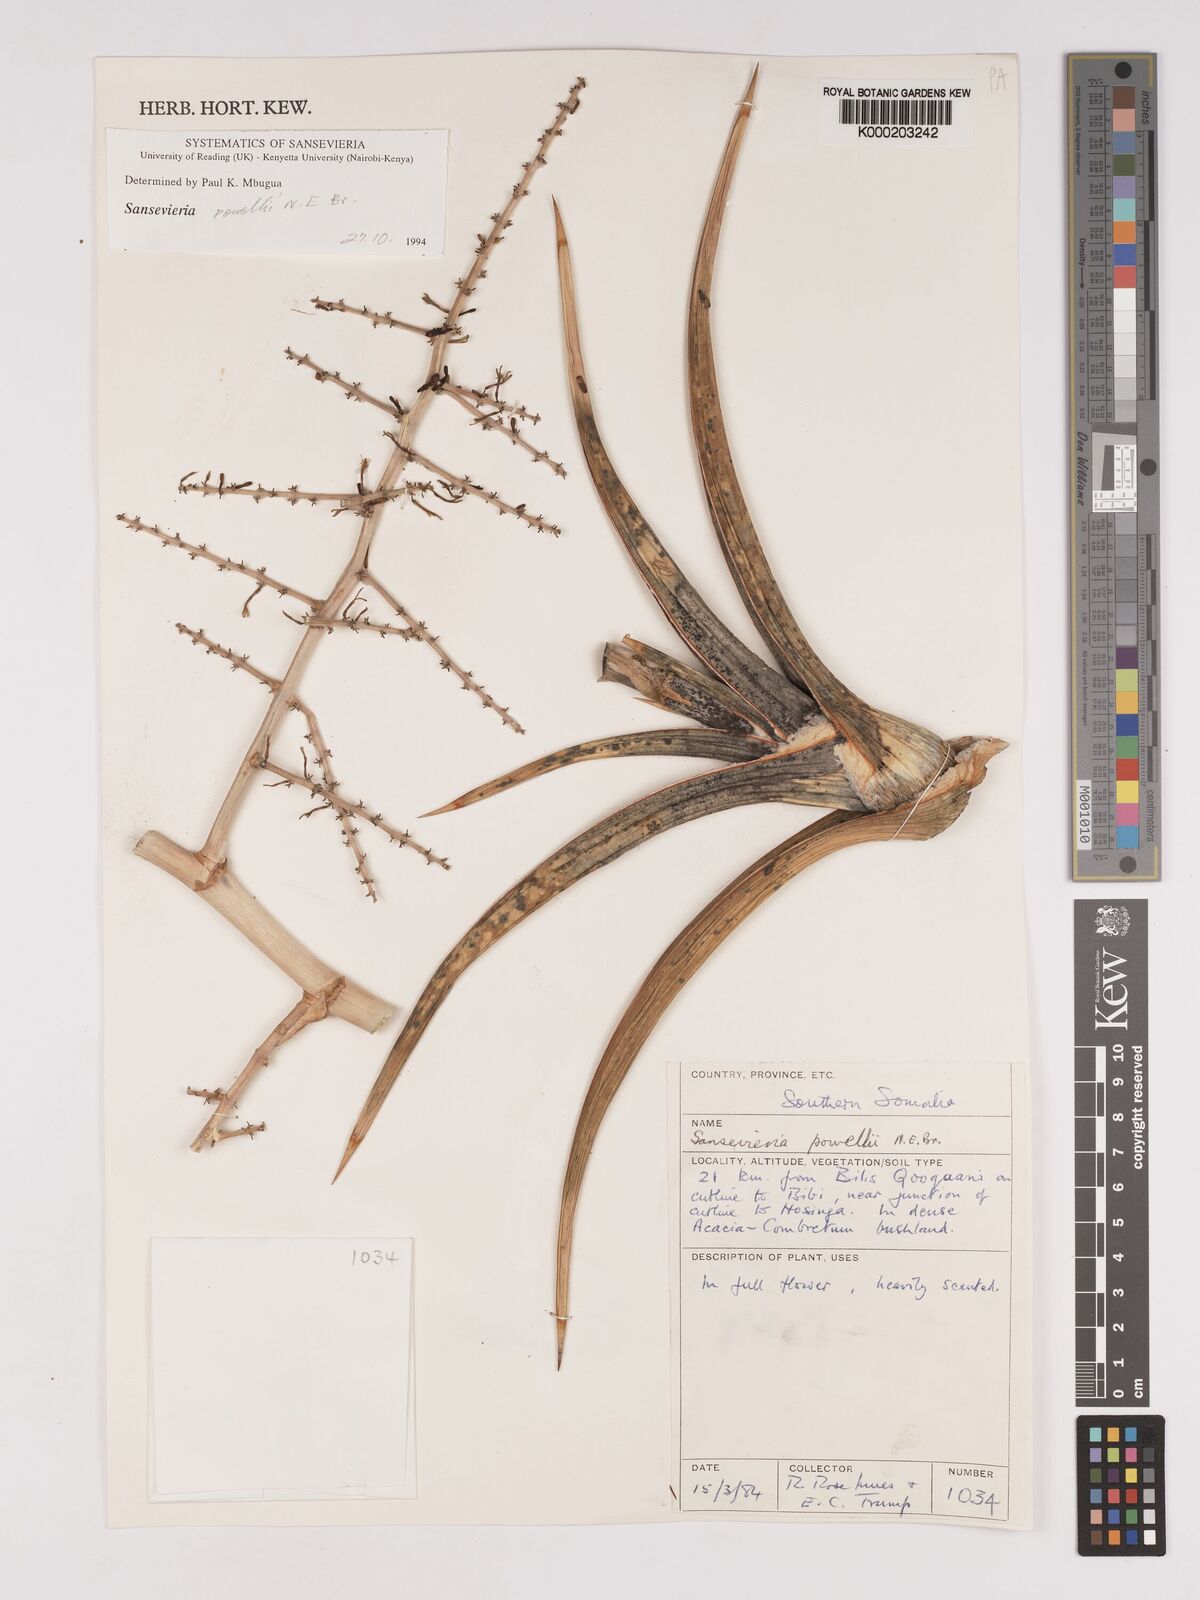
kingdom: Plantae
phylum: Tracheophyta
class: Liliopsida
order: Asparagales
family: Asparagaceae
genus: Dracaena
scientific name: Dracaena powellii
